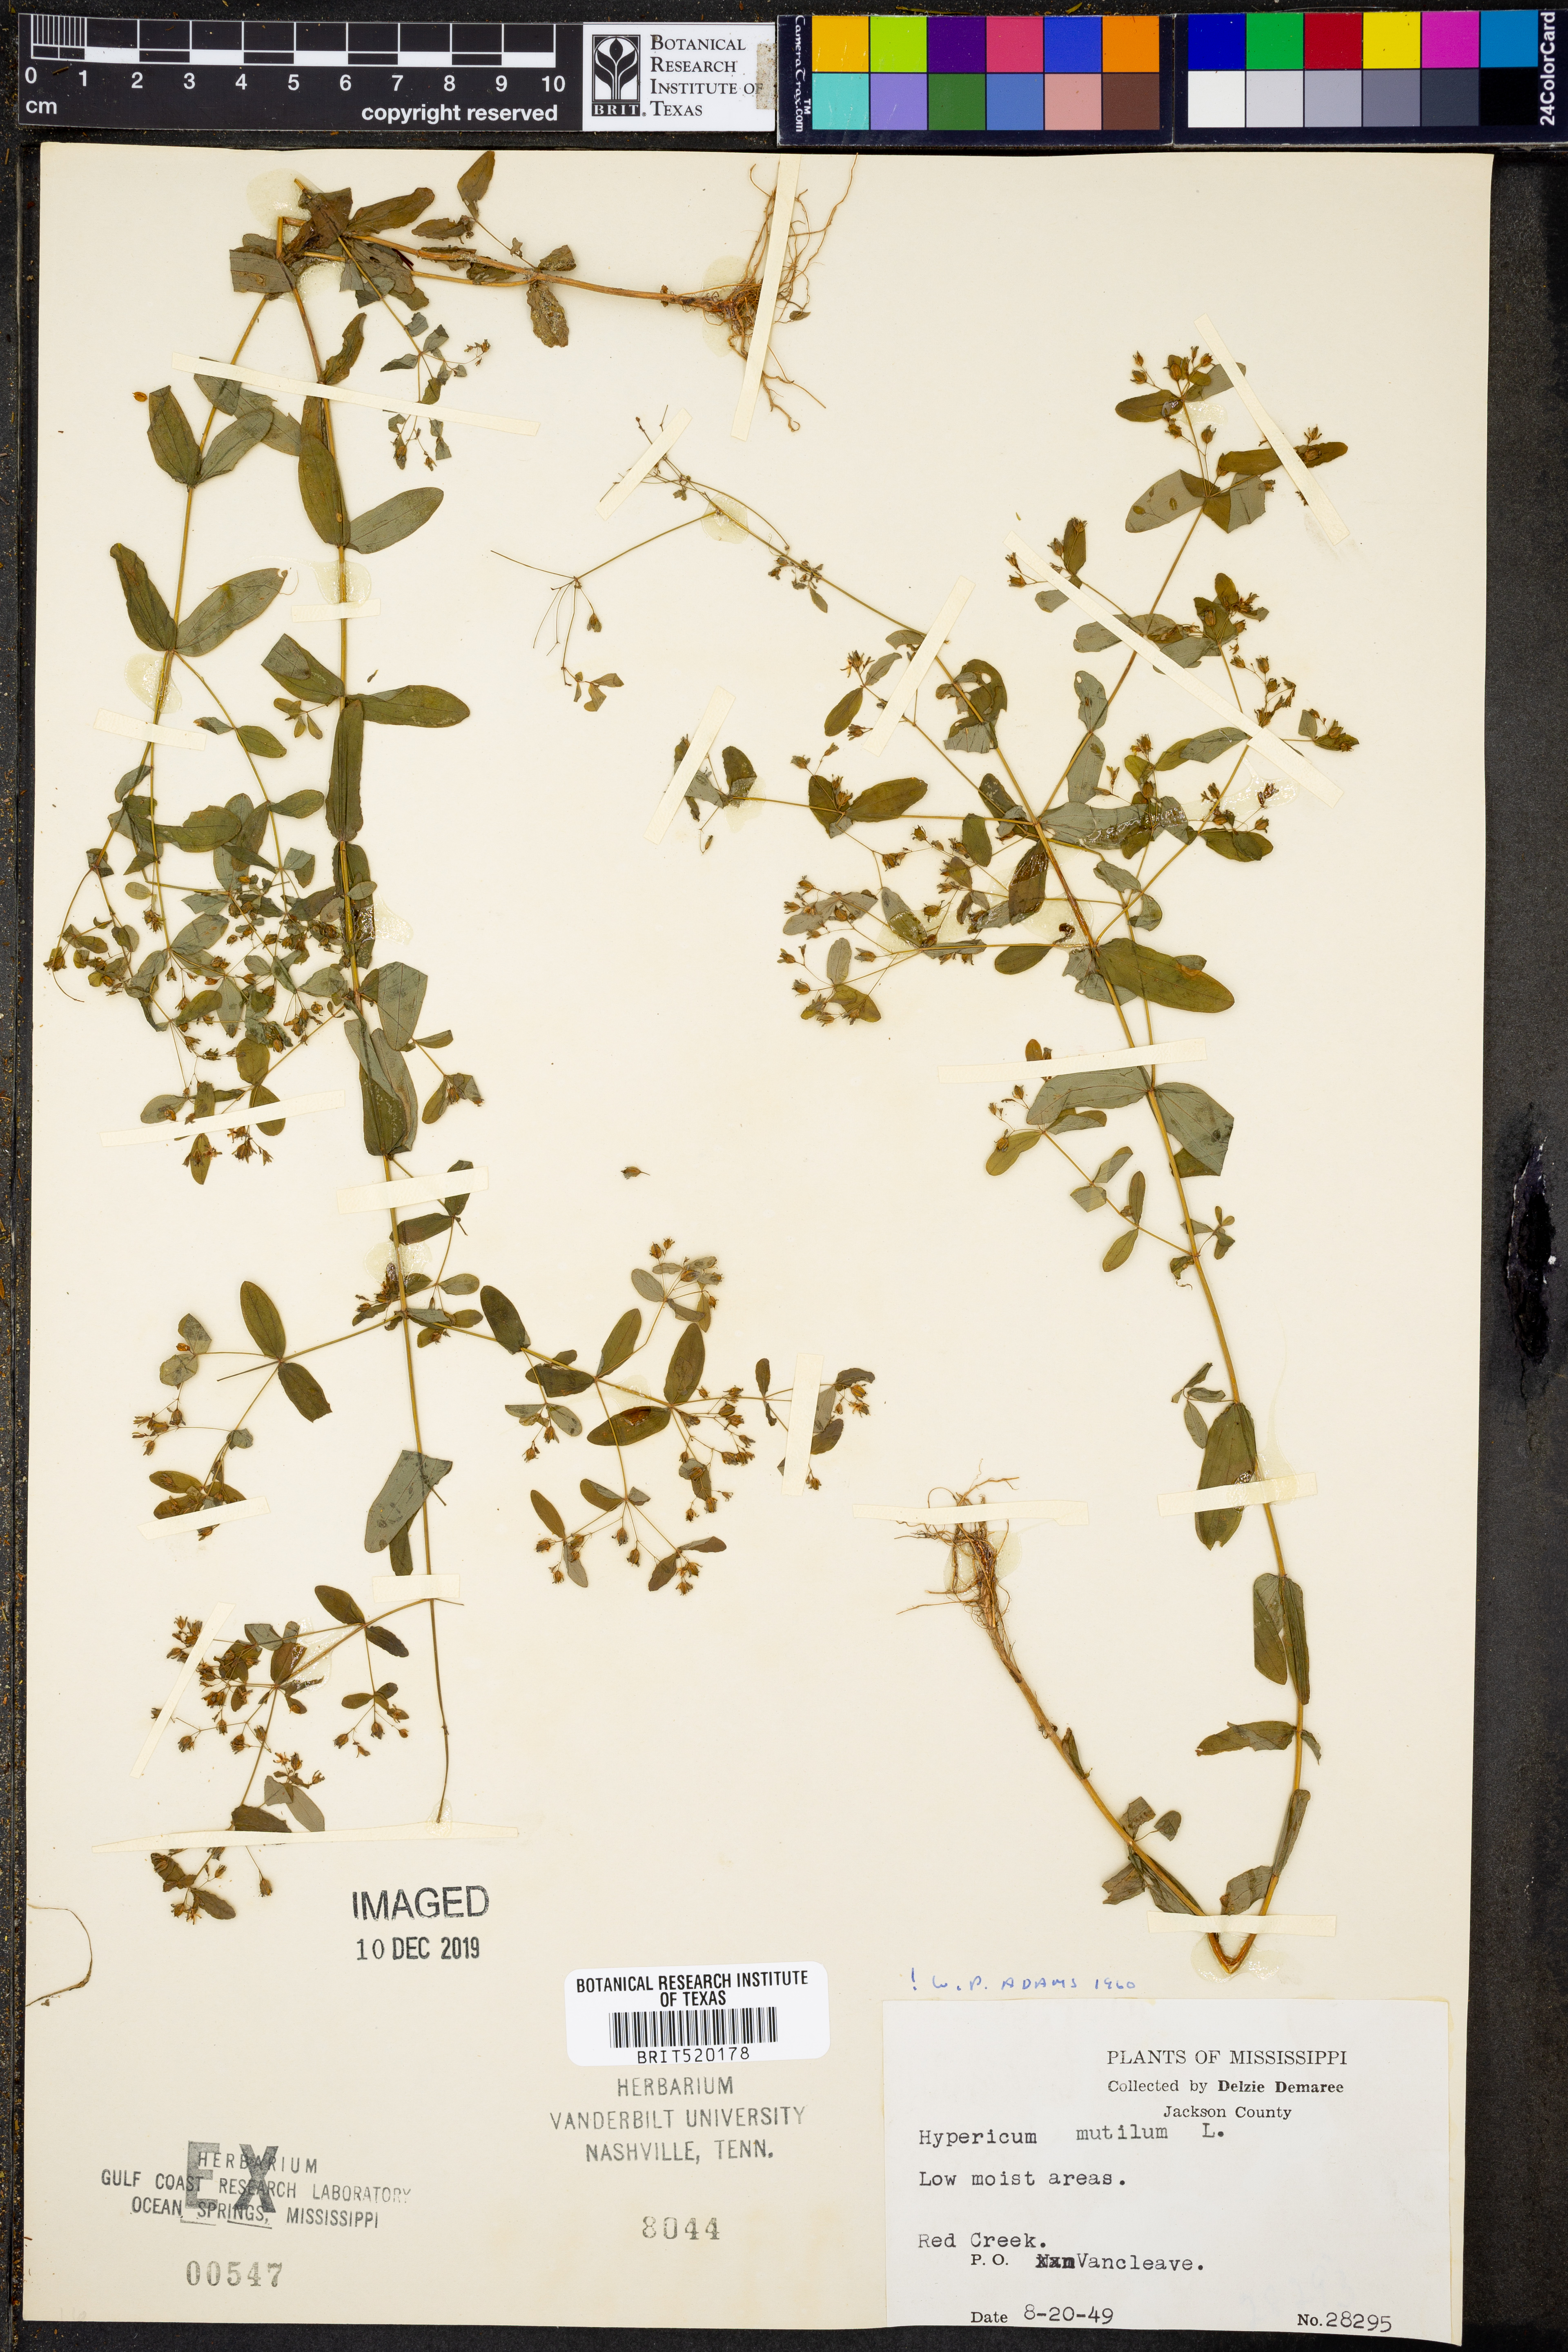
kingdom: Plantae
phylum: Tracheophyta
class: Magnoliopsida
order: Malpighiales
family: Hypericaceae
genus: Hypericum
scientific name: Hypericum mutilum
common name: Dwarf st. john's-wort
